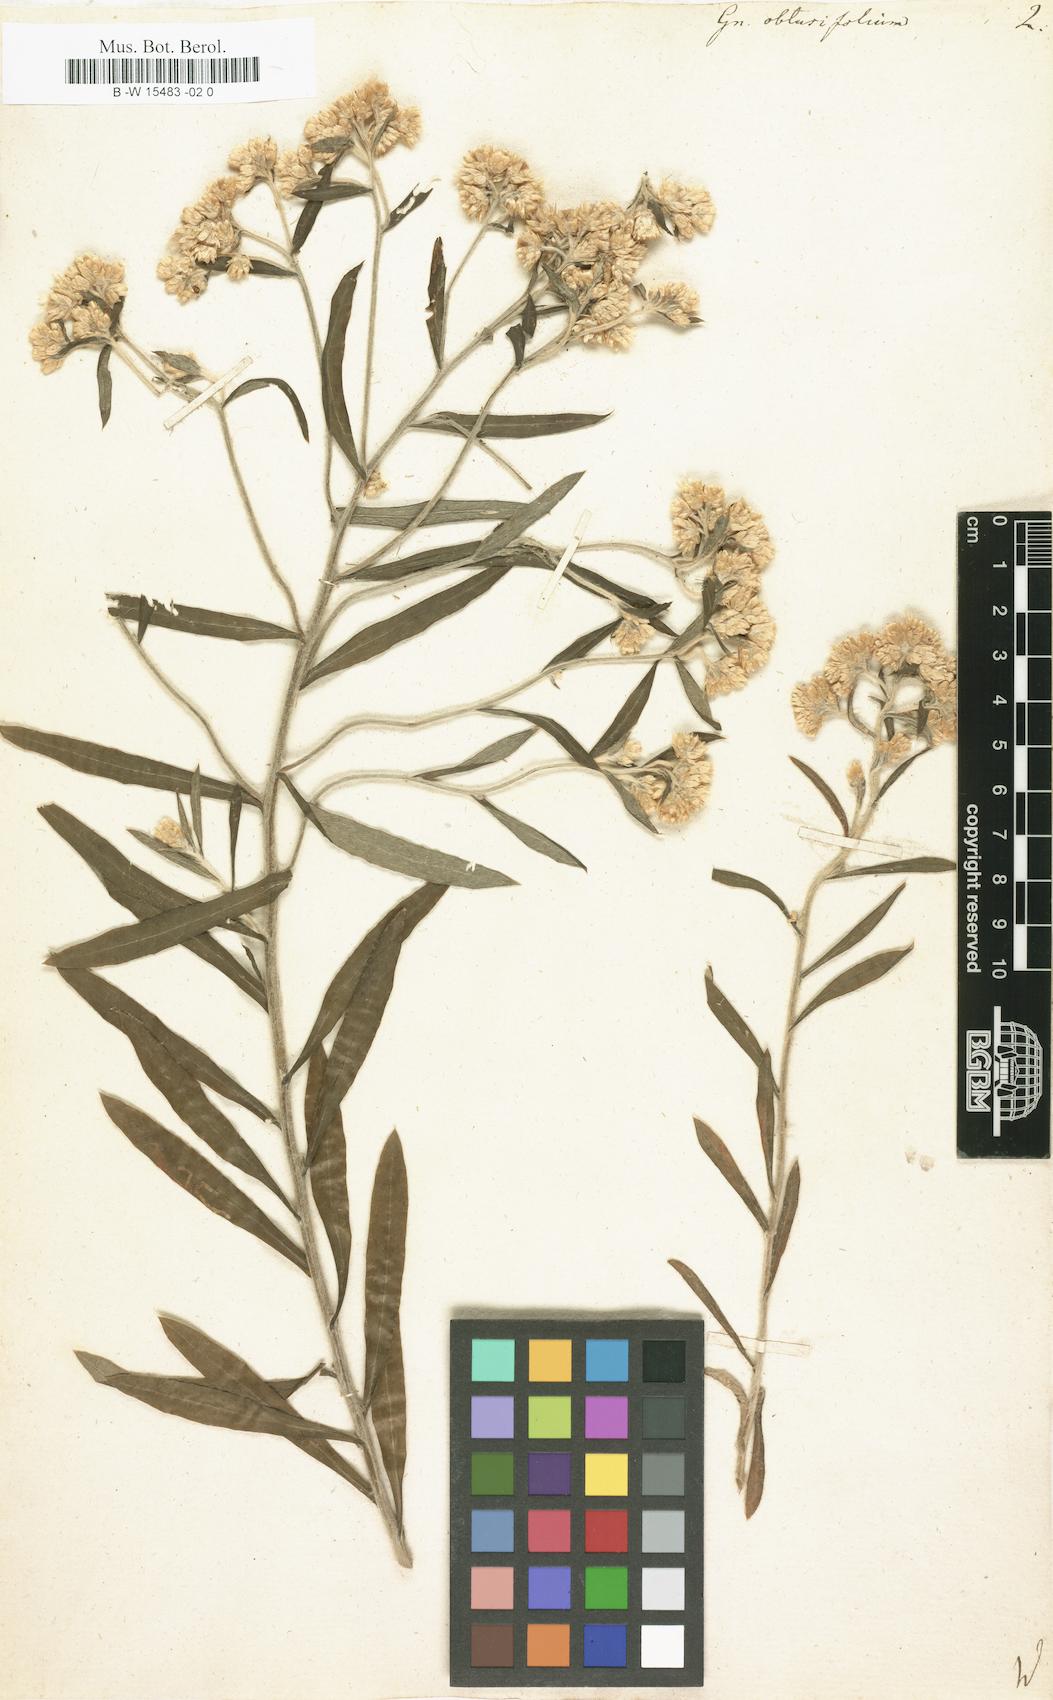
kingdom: Plantae
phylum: Tracheophyta
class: Magnoliopsida
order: Asterales
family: Asteraceae
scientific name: Asteraceae
